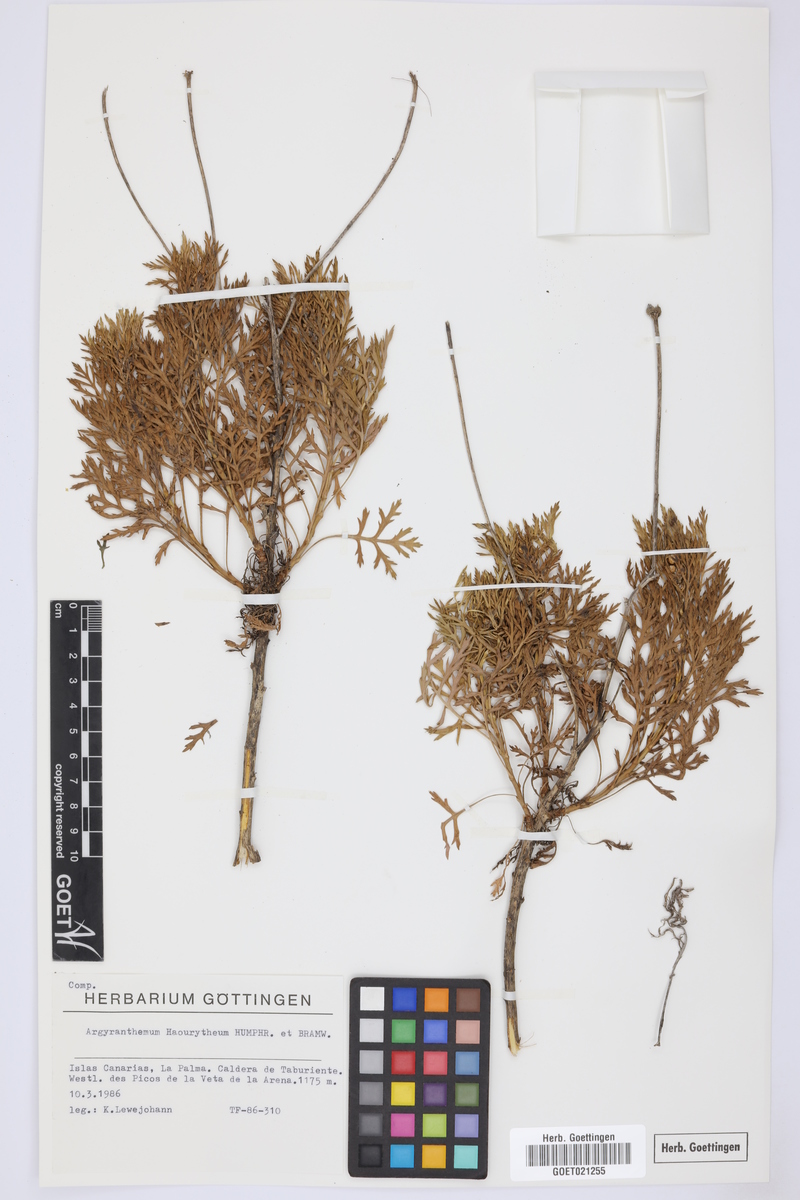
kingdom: Plantae
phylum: Tracheophyta
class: Magnoliopsida
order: Asterales
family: Asteraceae
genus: Argyranthemum
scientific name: Argyranthemum haouarytheum
